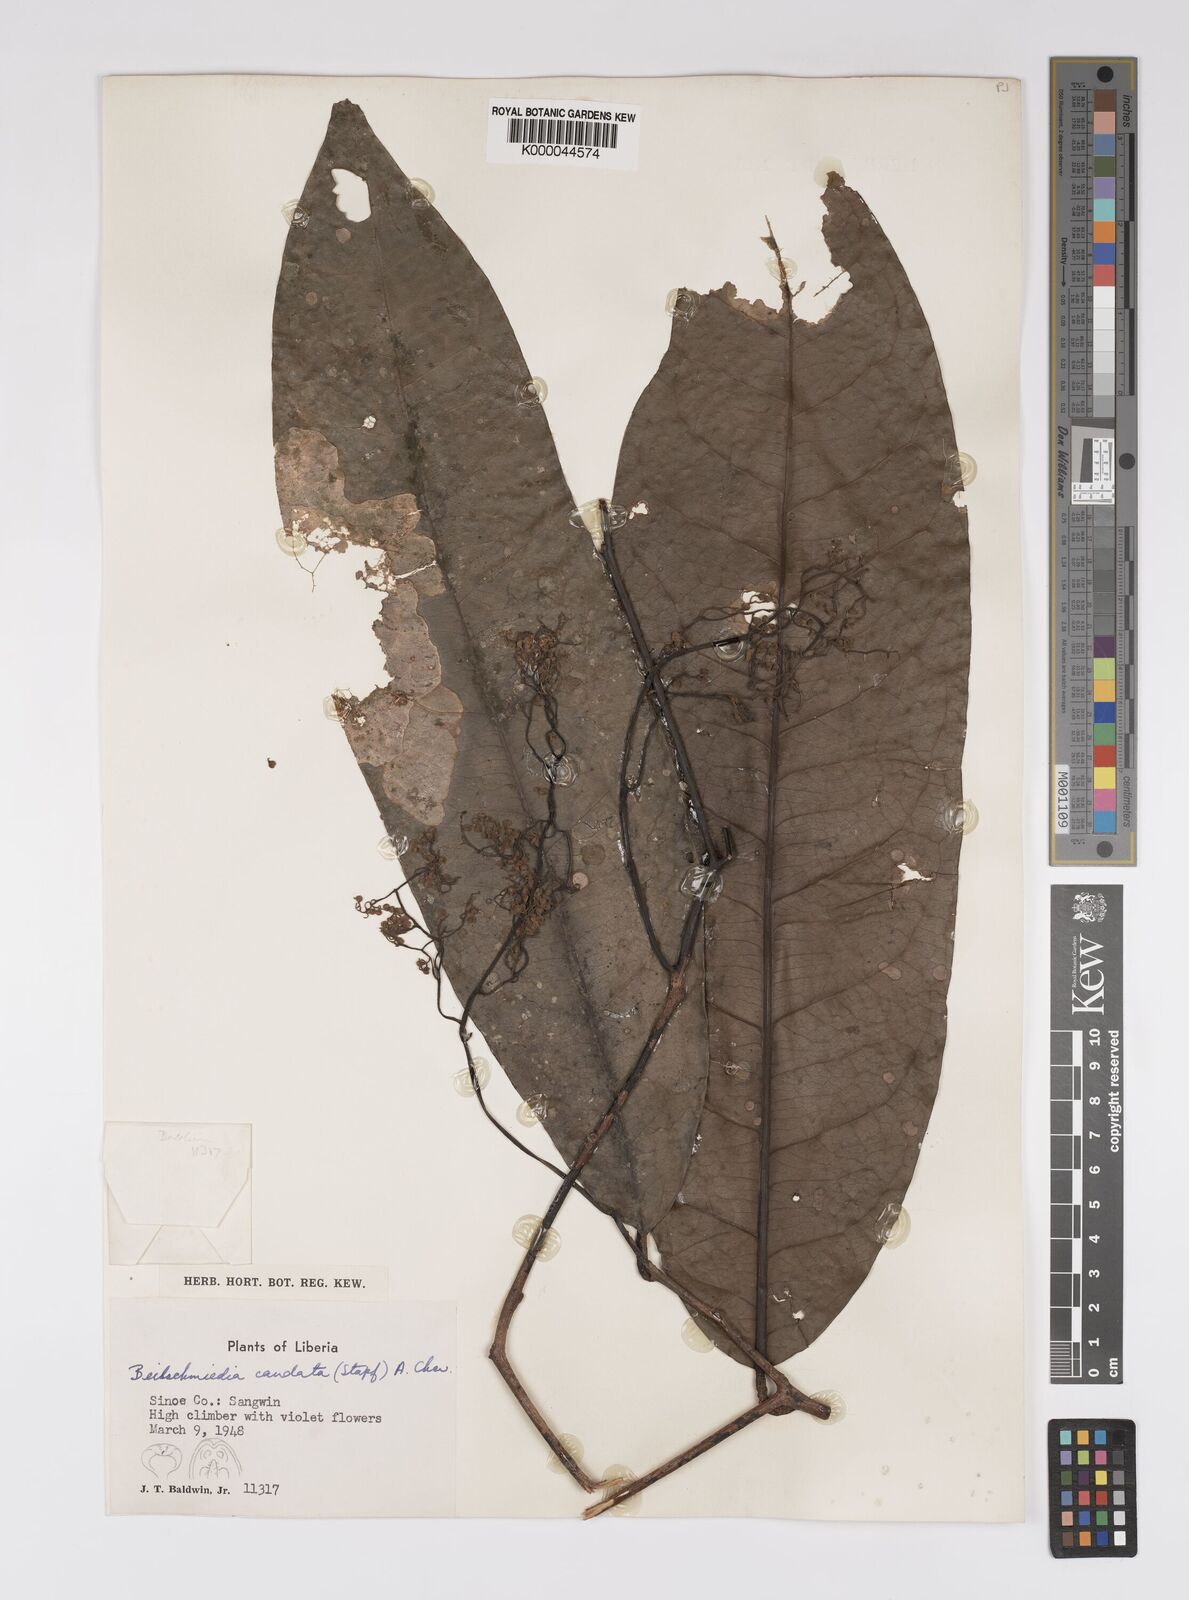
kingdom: Plantae
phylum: Tracheophyta
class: Magnoliopsida
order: Laurales
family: Lauraceae
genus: Beilschmiedia
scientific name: Beilschmiedia caudata
